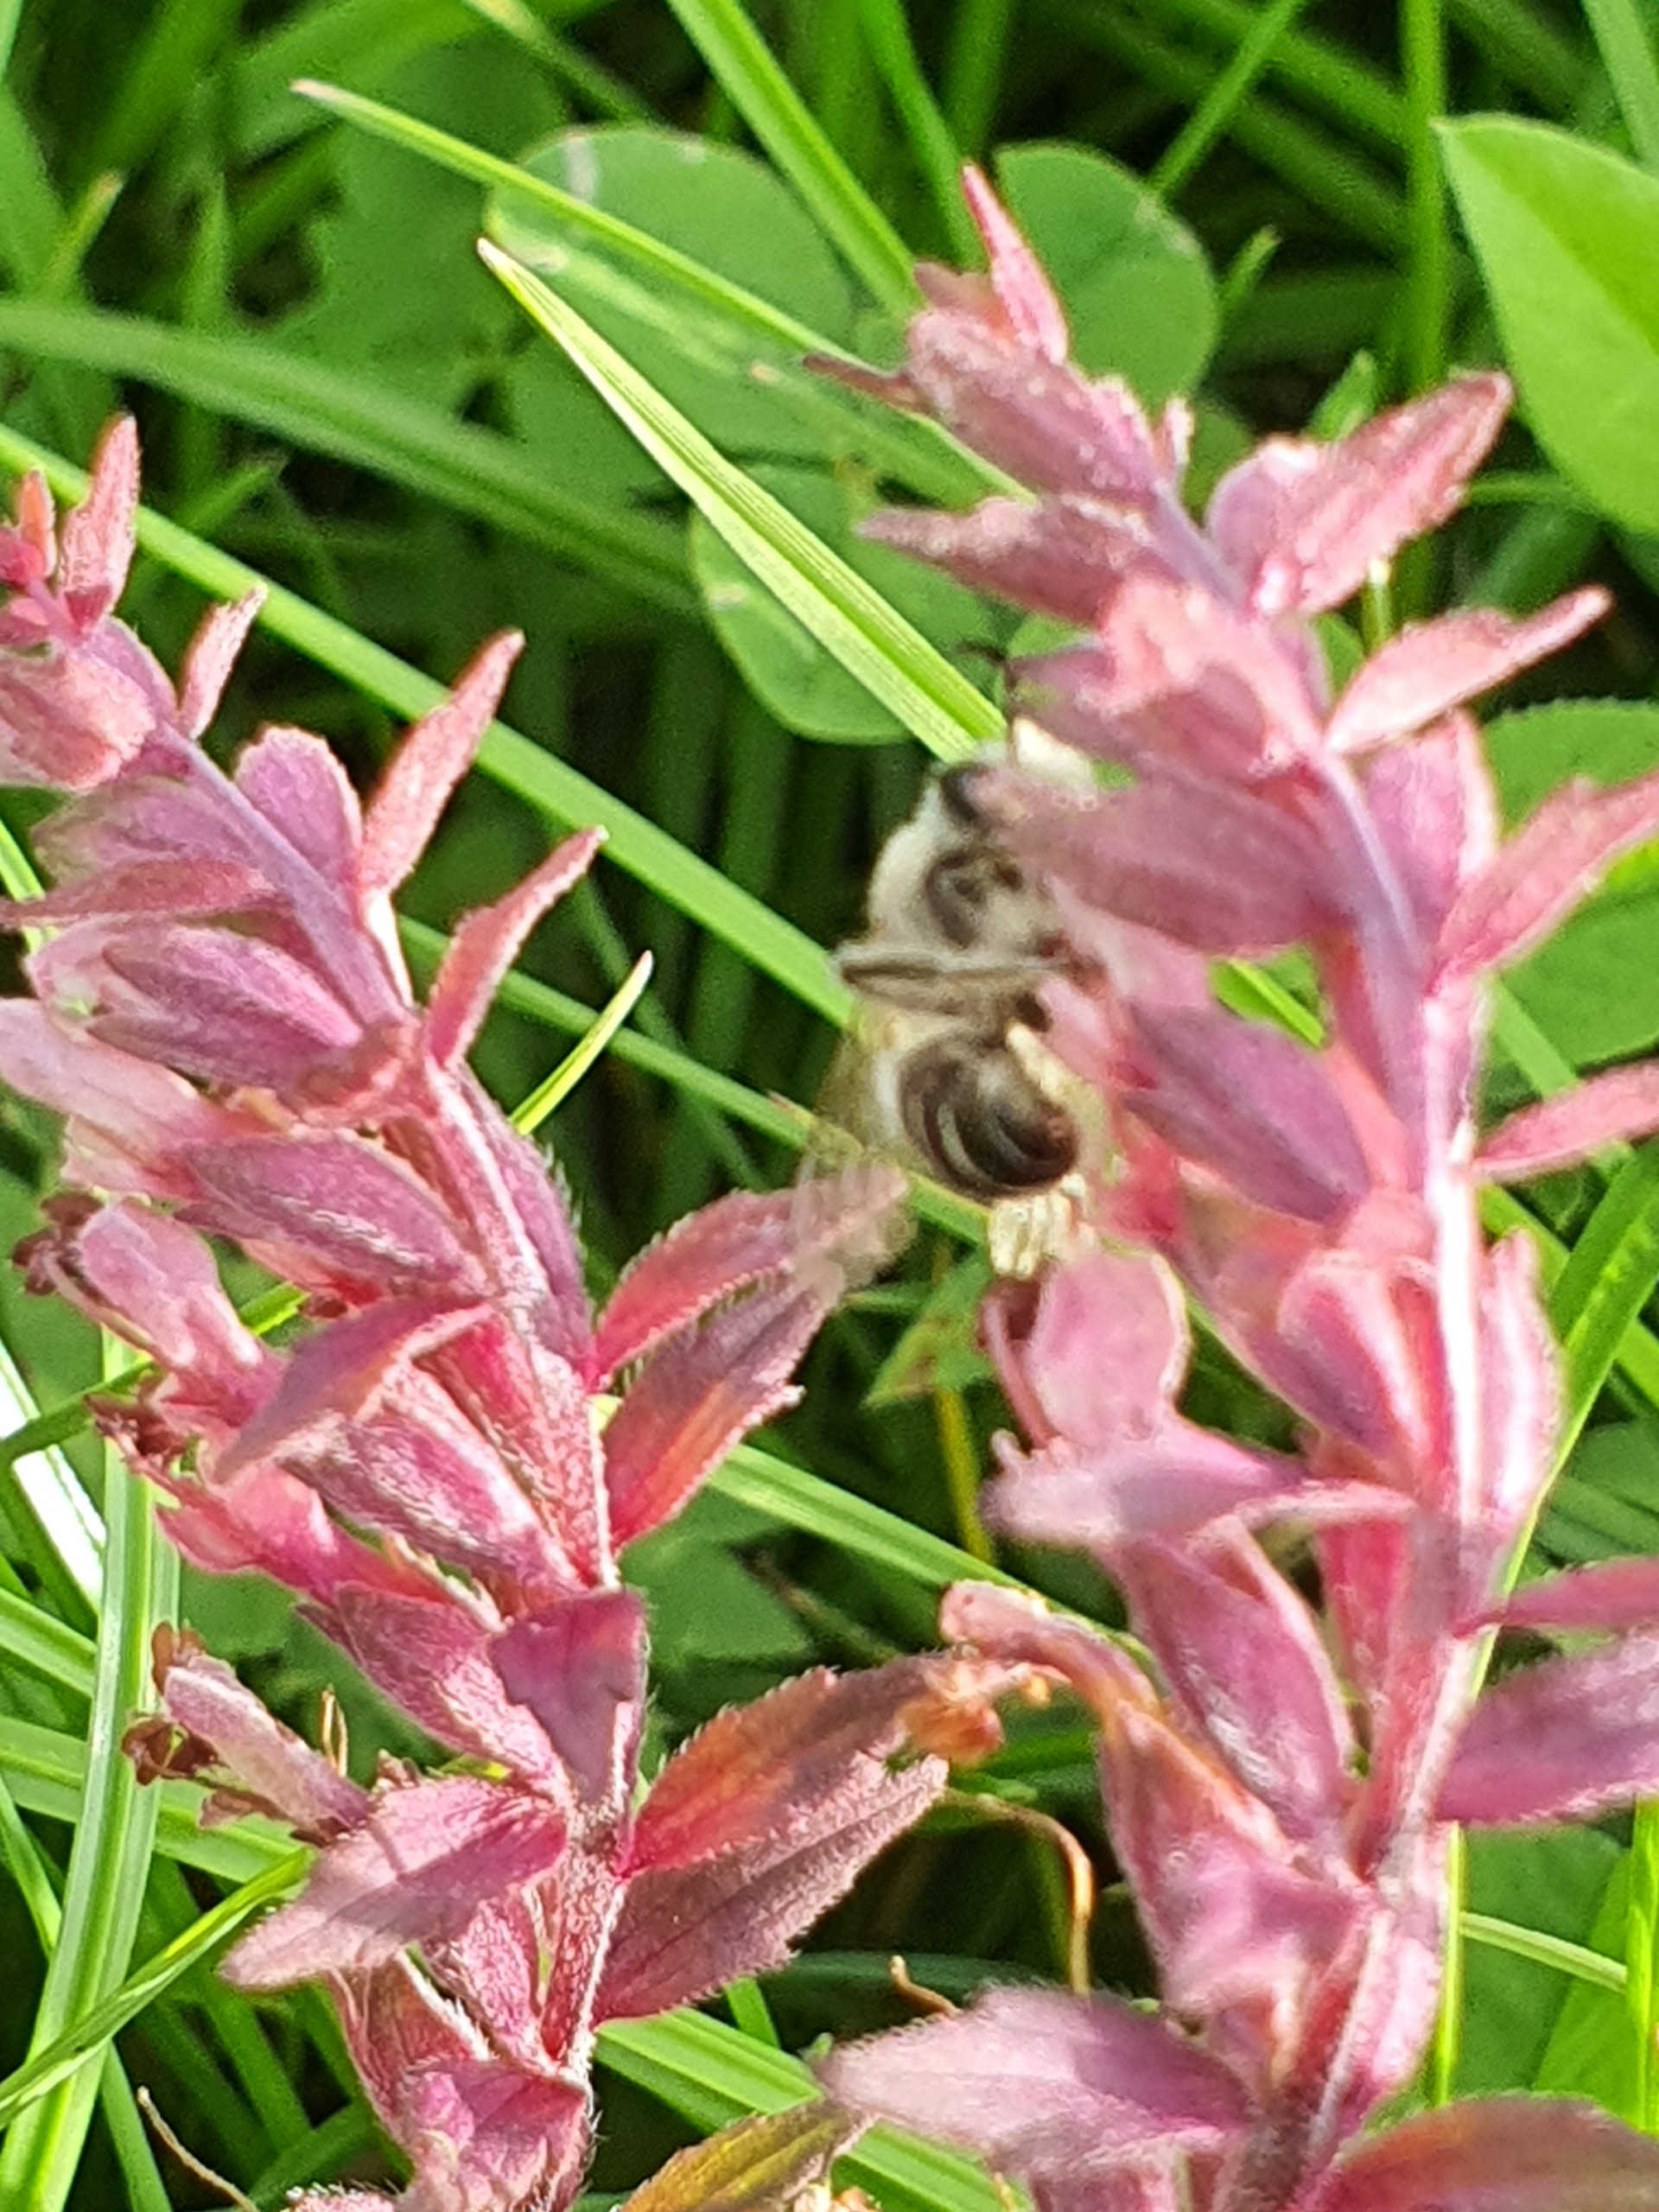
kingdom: Animalia
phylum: Arthropoda
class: Insecta
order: Hymenoptera
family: Melittidae
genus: Melitta
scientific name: Melitta tricincta
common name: Rødtopbi
